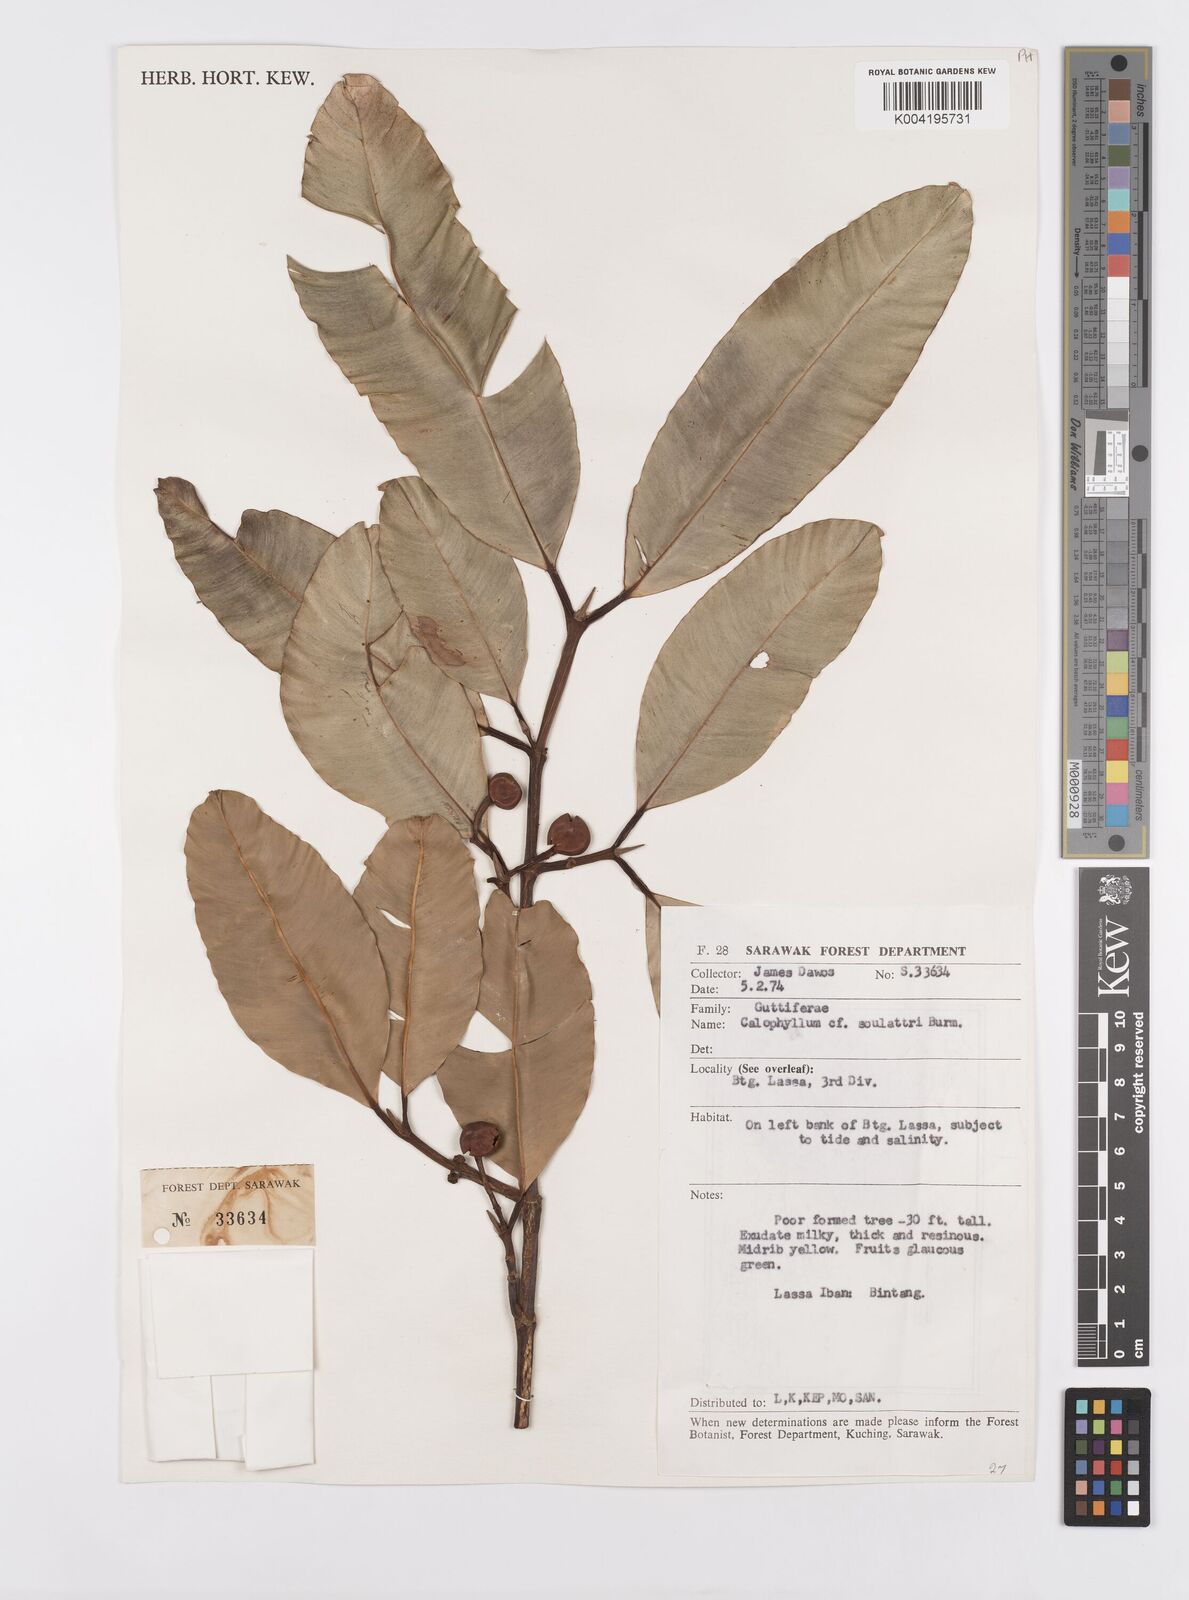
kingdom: Plantae
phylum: Tracheophyta
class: Magnoliopsida
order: Malpighiales
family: Calophyllaceae
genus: Calophyllum
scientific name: Calophyllum soulattri
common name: Bitangoor boonot
